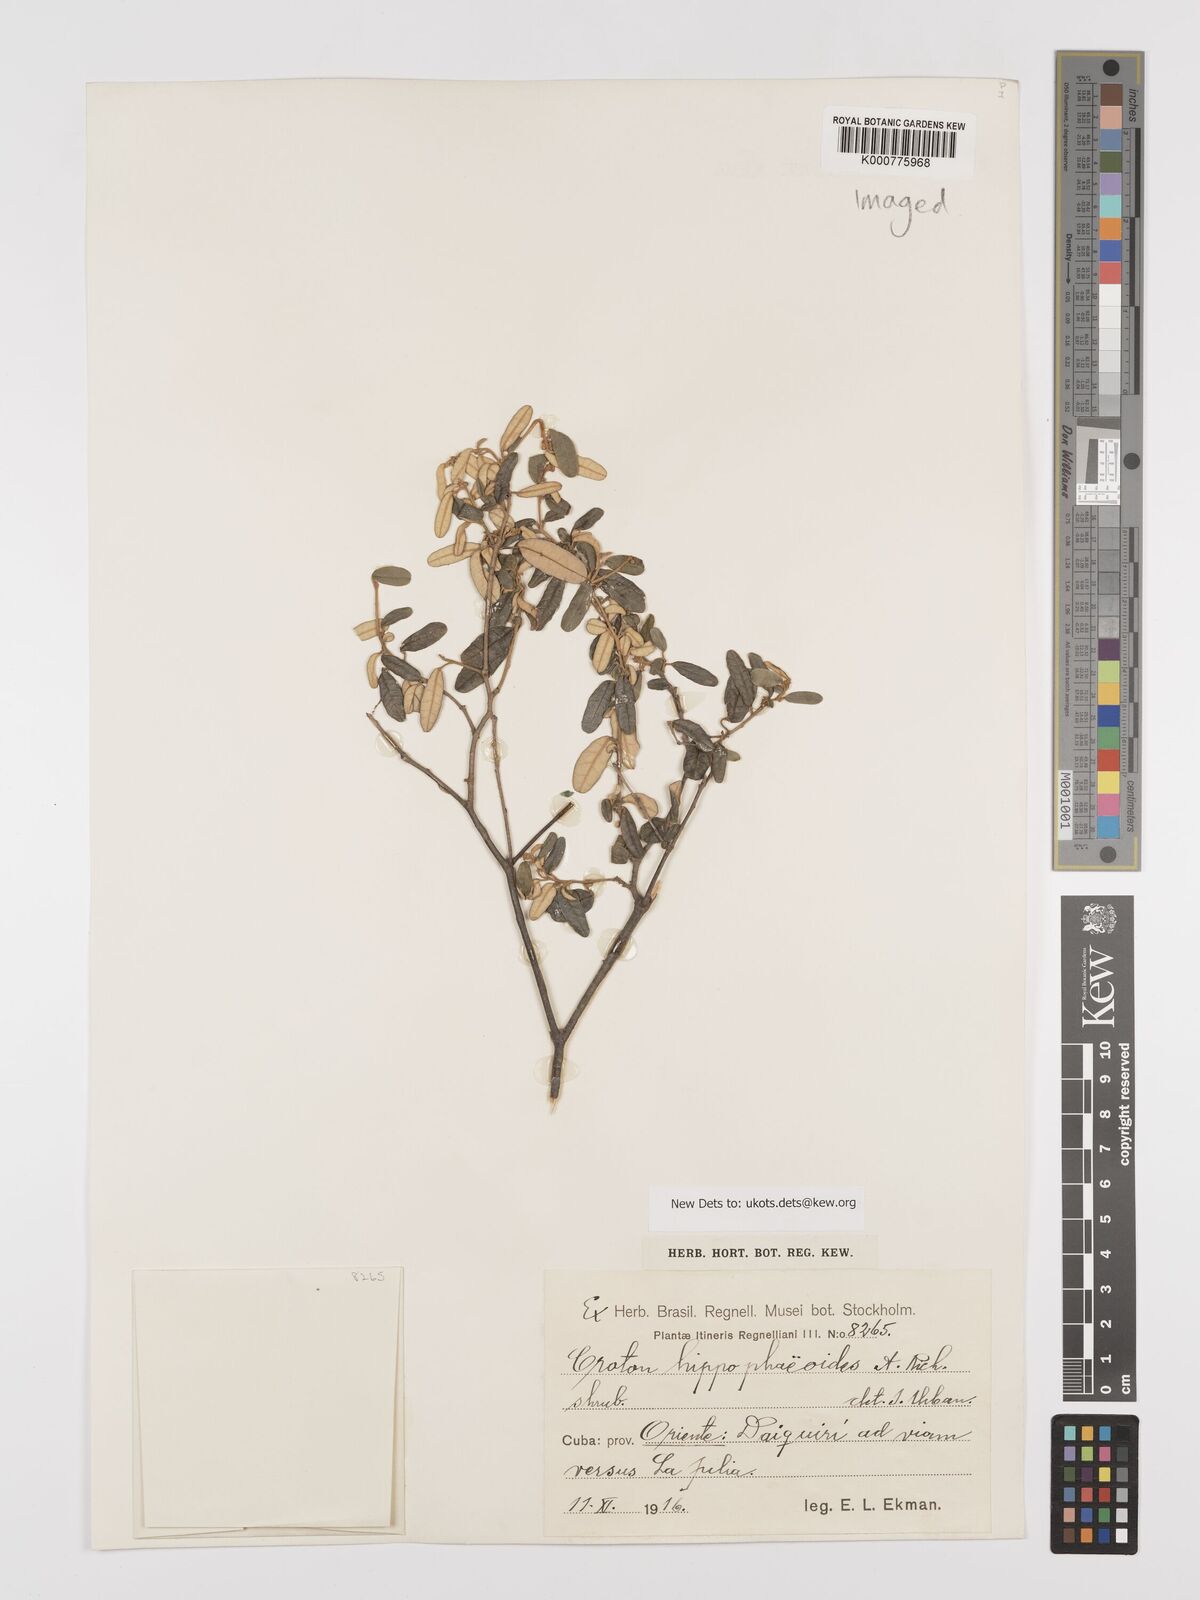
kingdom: Plantae
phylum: Tracheophyta
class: Magnoliopsida
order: Malpighiales
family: Euphorbiaceae
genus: Croton
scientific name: Croton linearis
